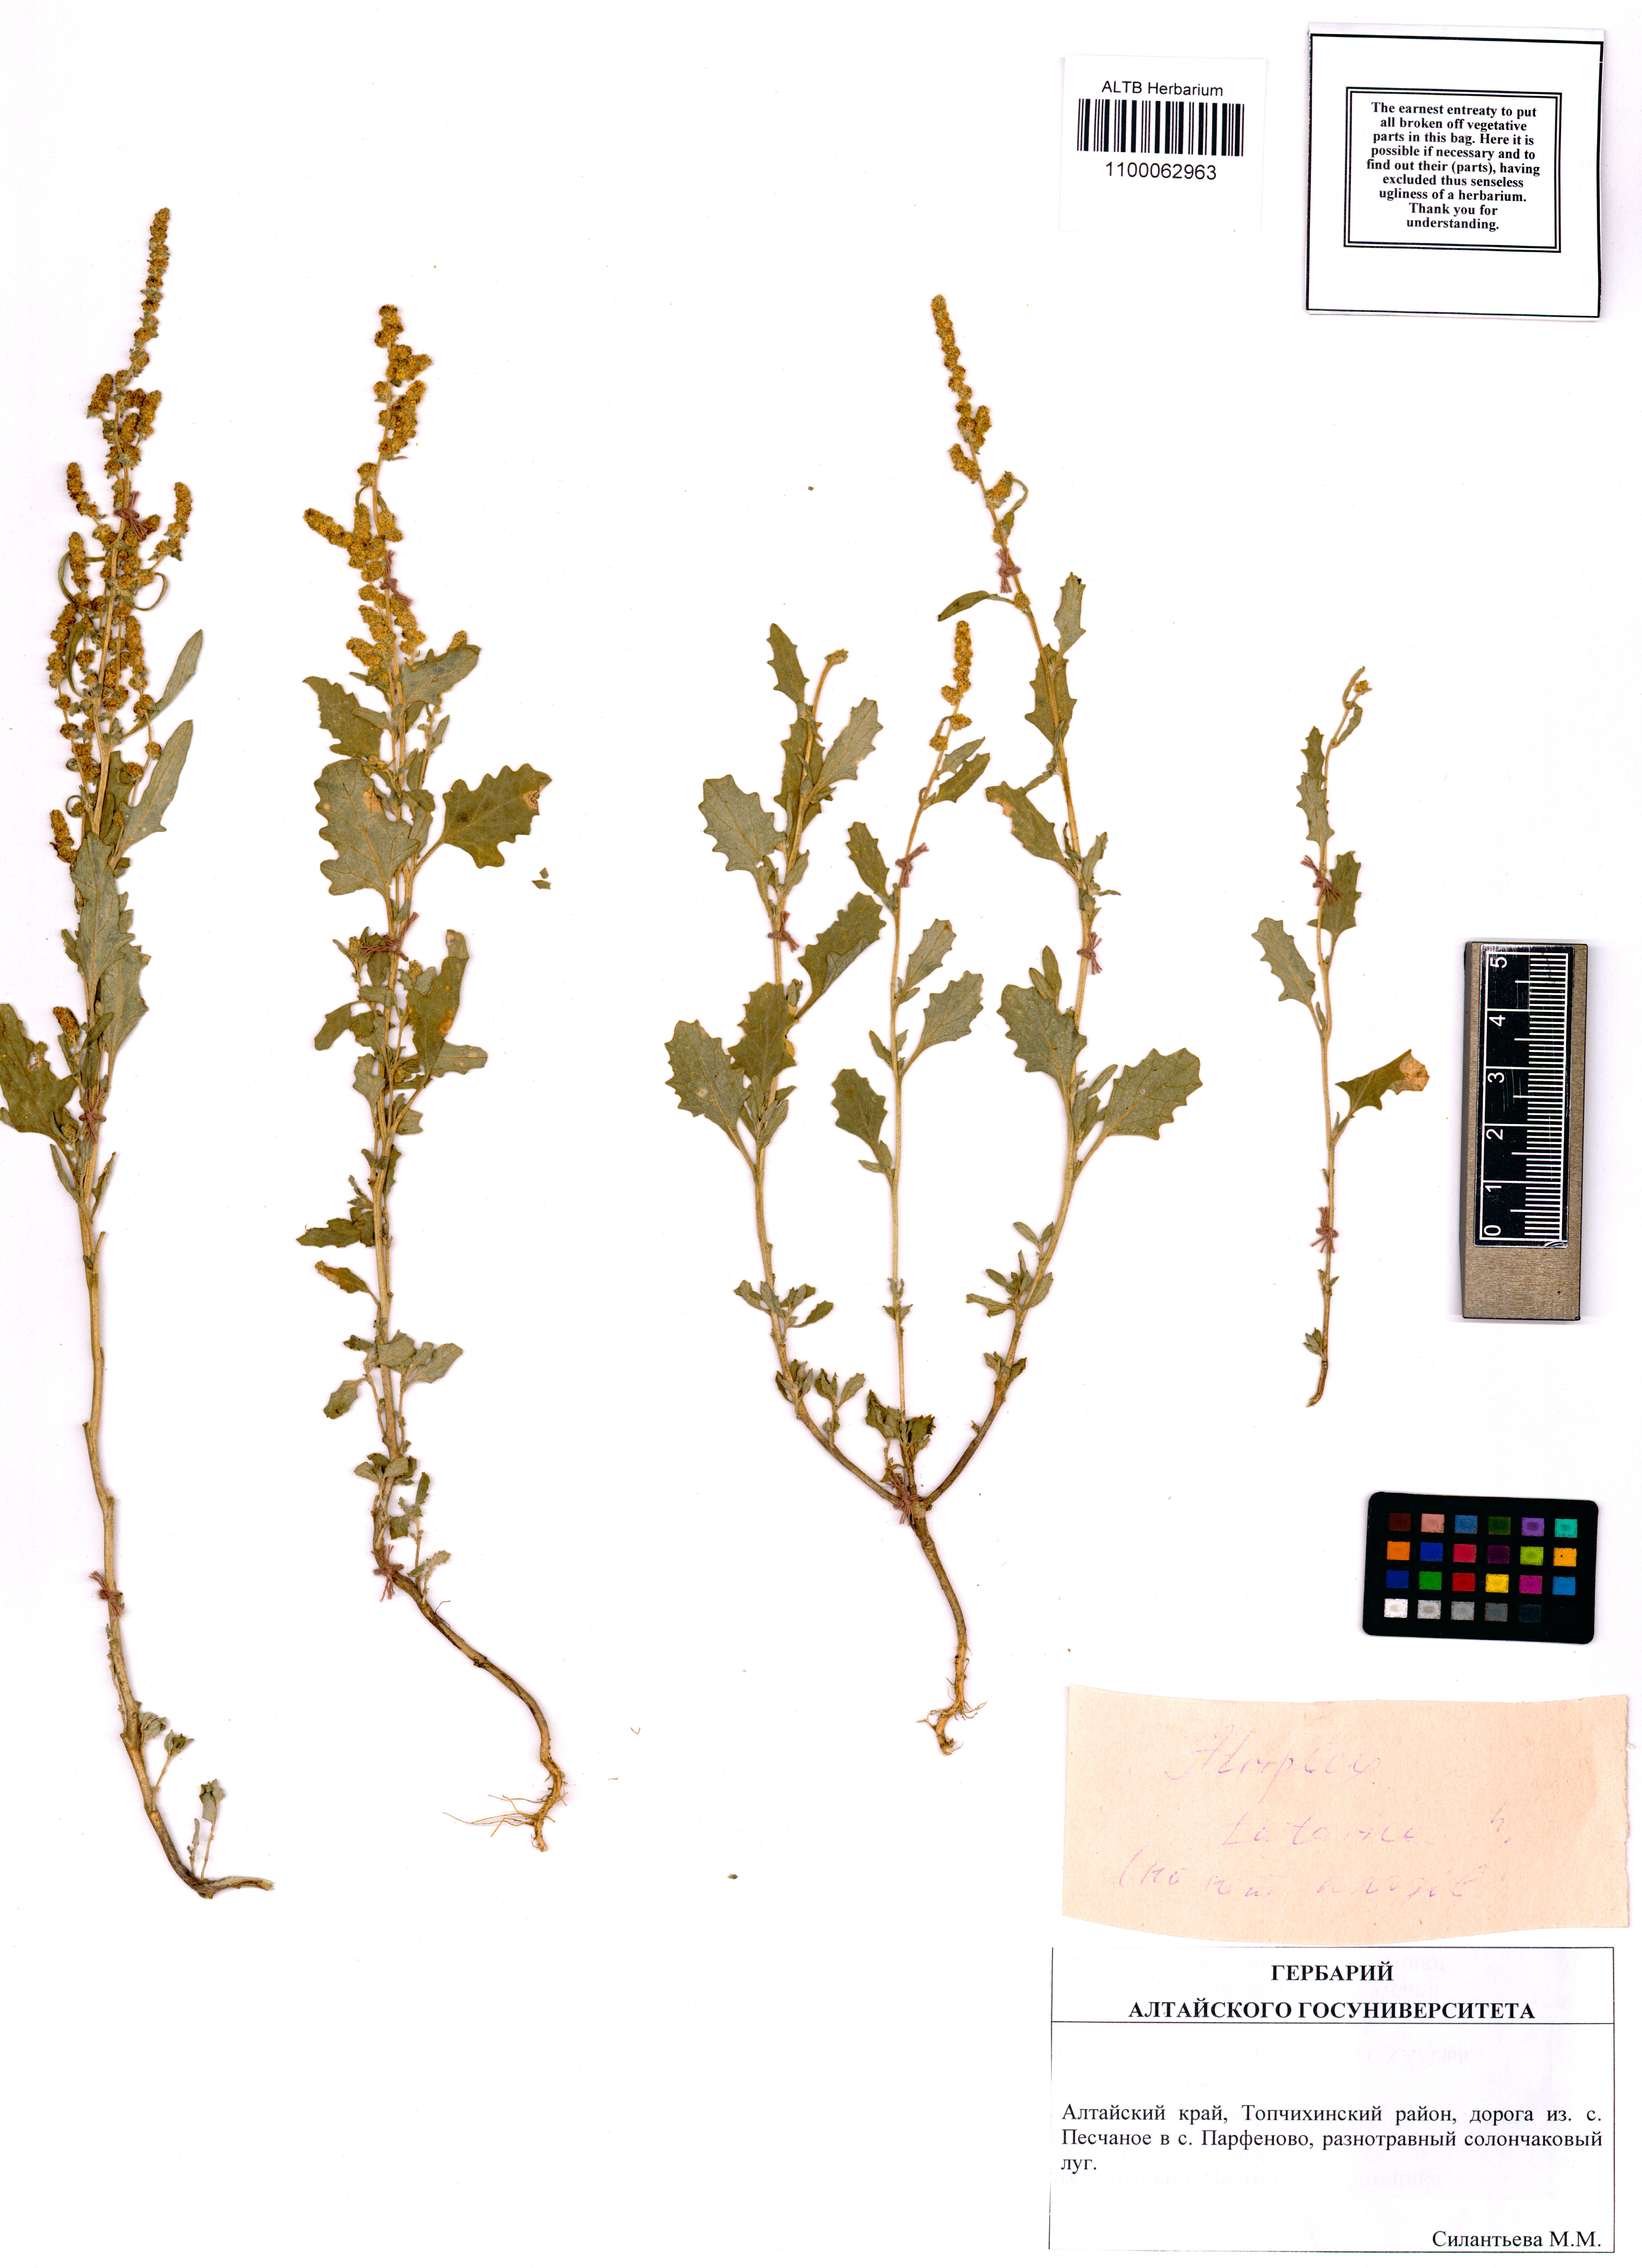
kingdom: Plantae
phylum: Tracheophyta
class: Magnoliopsida
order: Caryophyllales
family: Amaranthaceae
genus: Atriplex
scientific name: Atriplex tatarica
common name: Tatarian orache
